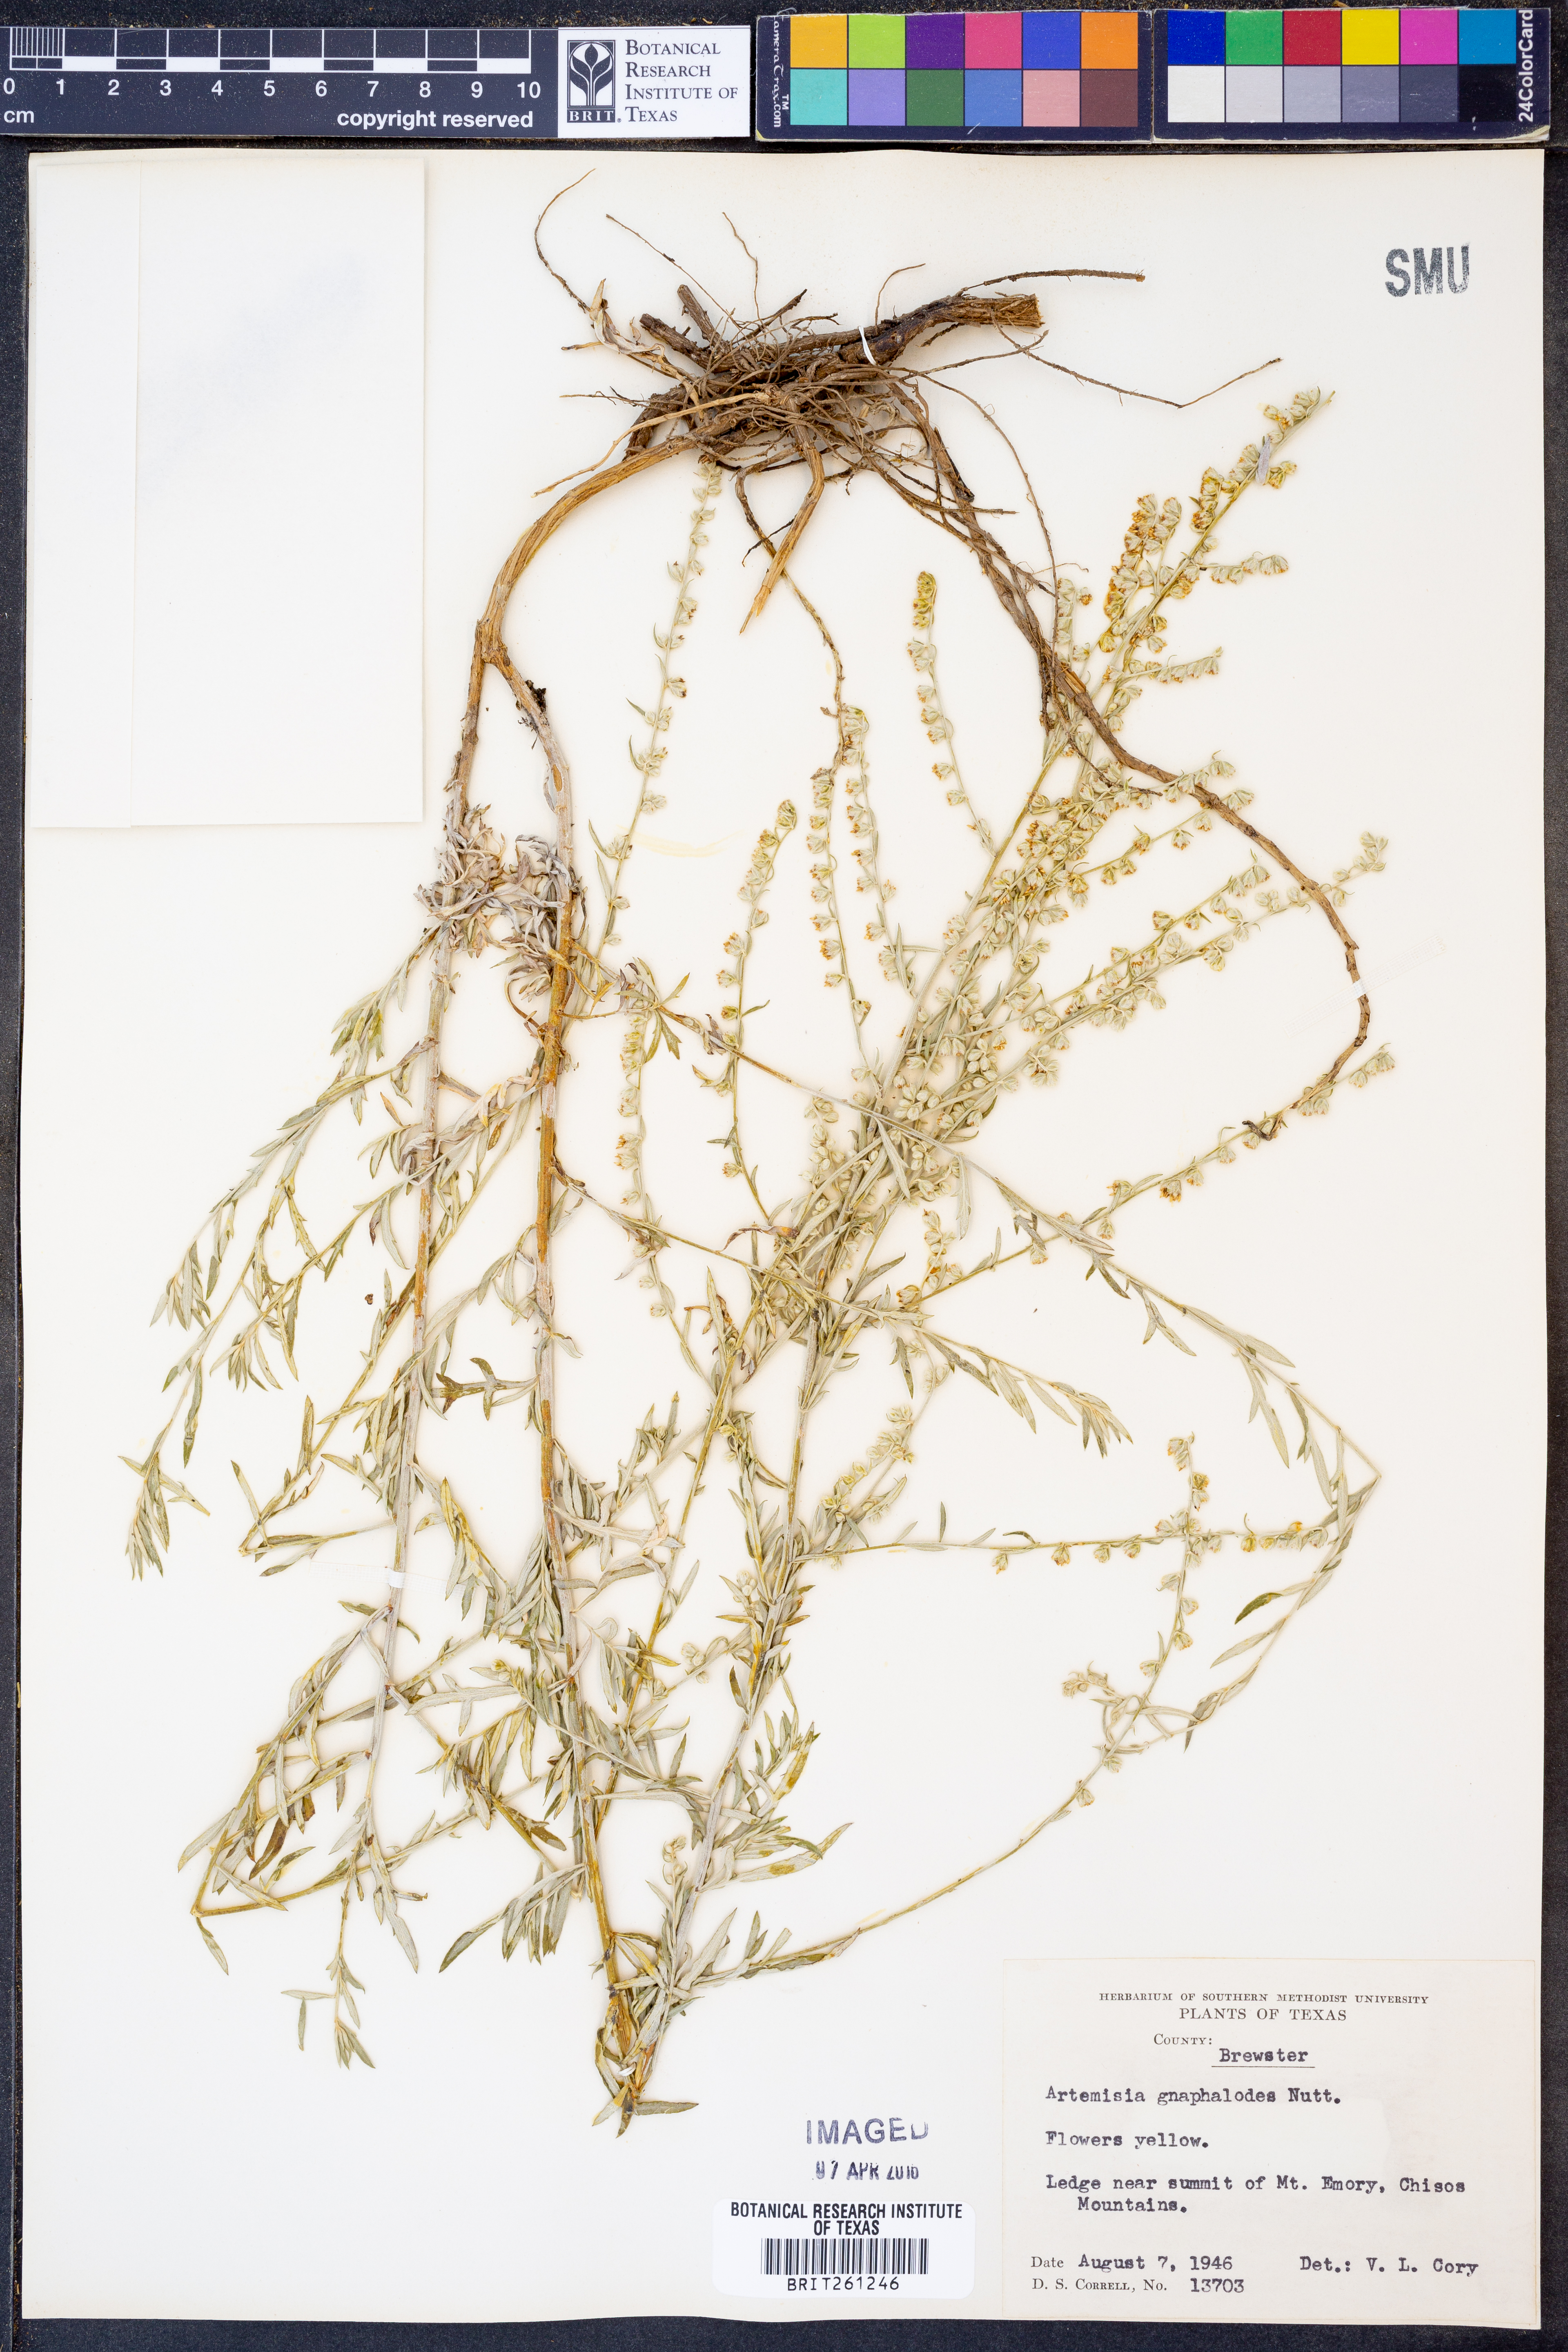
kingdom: Plantae
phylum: Tracheophyta
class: Magnoliopsida
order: Asterales
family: Asteraceae
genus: Artemisia
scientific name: Artemisia ludoviciana
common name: Western mugwort
